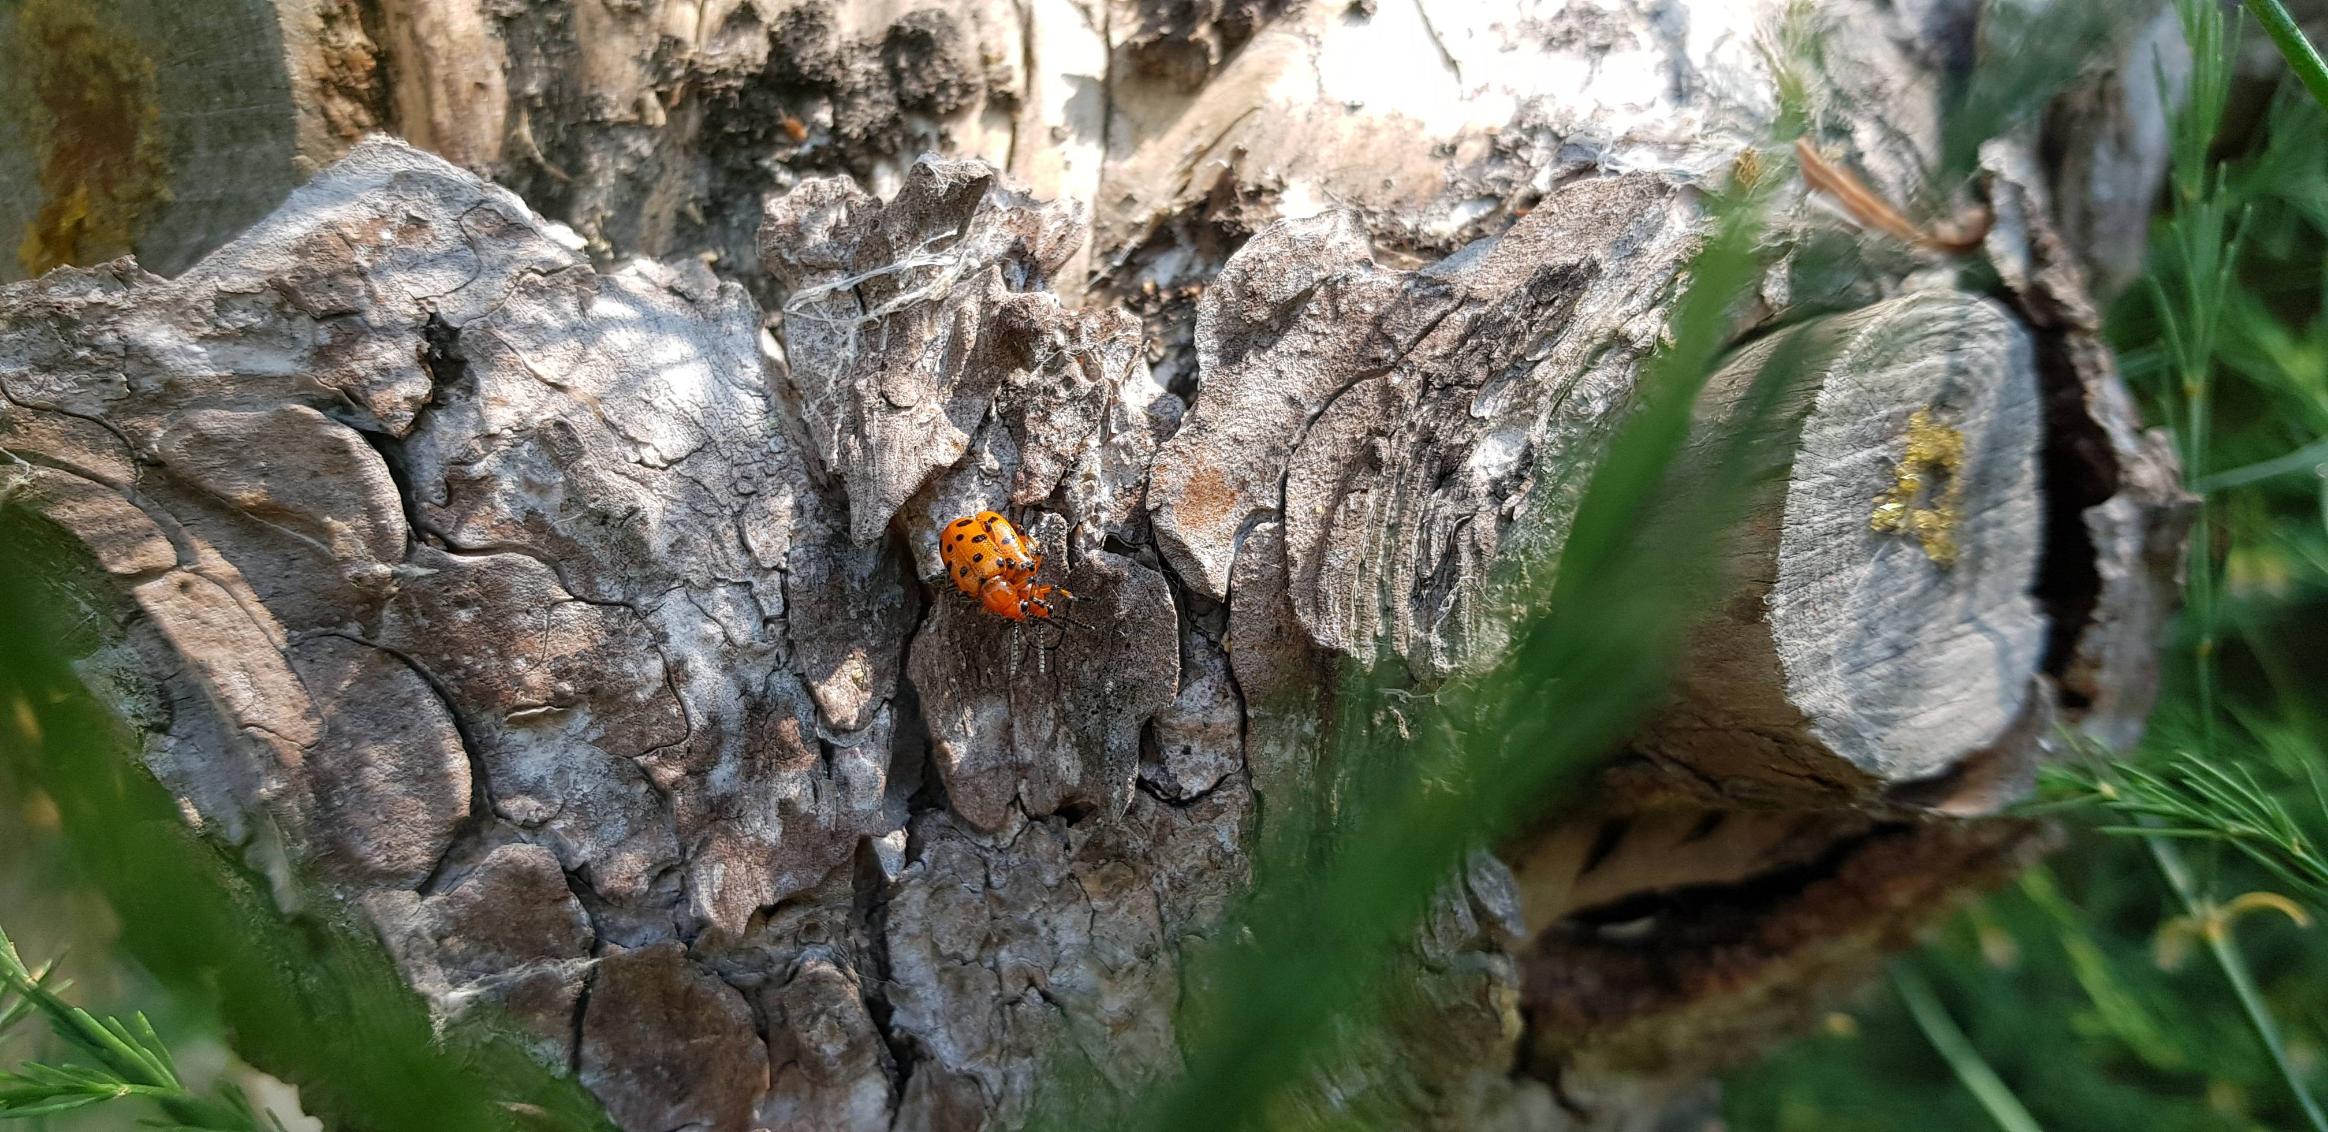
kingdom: Animalia
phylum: Arthropoda
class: Insecta
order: Coleoptera
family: Chrysomelidae
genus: Crioceris
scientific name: Crioceris duodecimpunctata
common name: Tolvplettet aspargesbille
